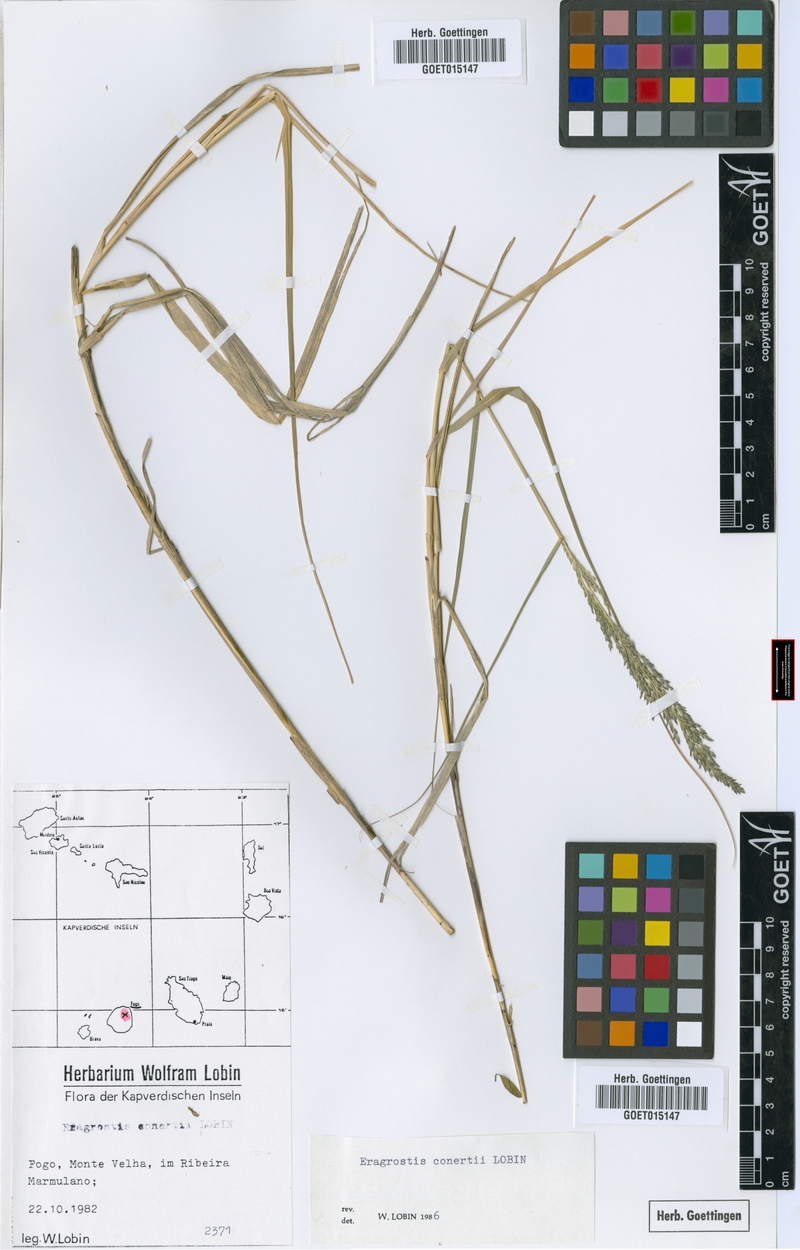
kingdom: Plantae
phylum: Tracheophyta
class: Liliopsida
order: Poales
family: Poaceae
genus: Eragrostis
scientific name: Eragrostis conertii
